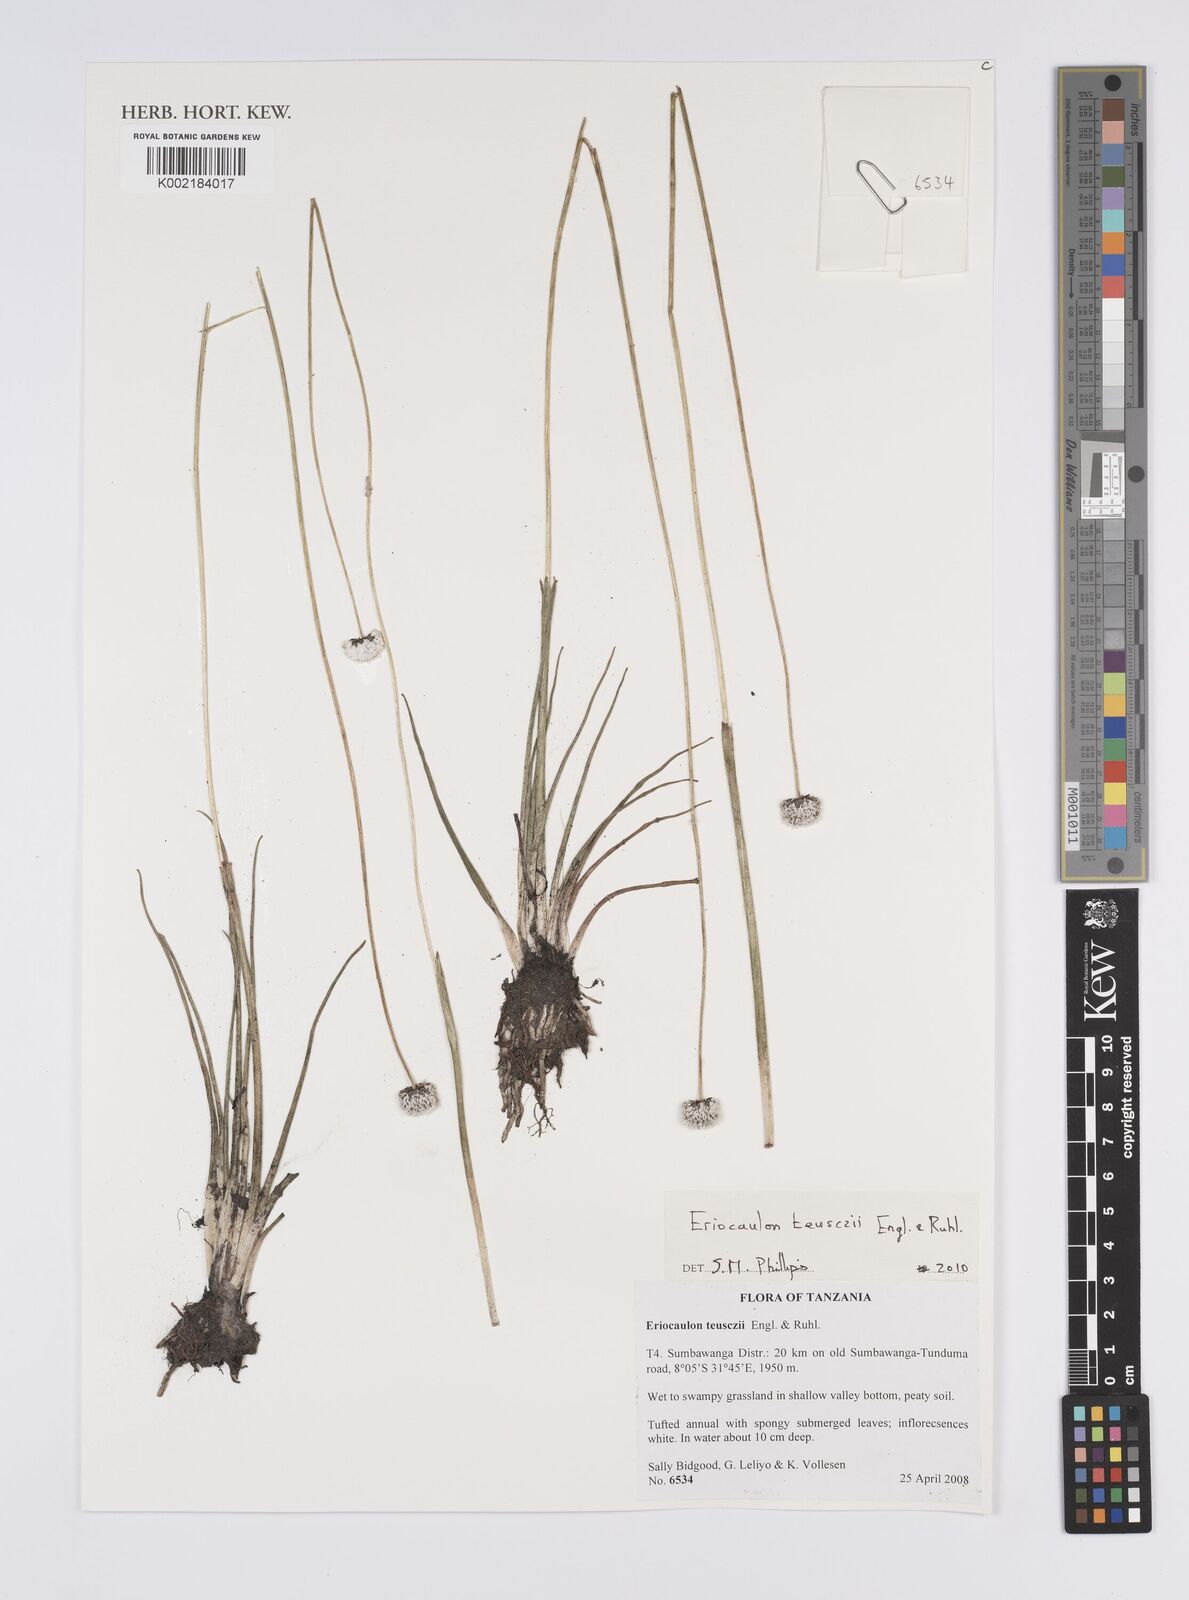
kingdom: Plantae
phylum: Tracheophyta
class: Liliopsida
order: Poales
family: Eriocaulaceae
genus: Eriocaulon
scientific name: Eriocaulon teusczii
